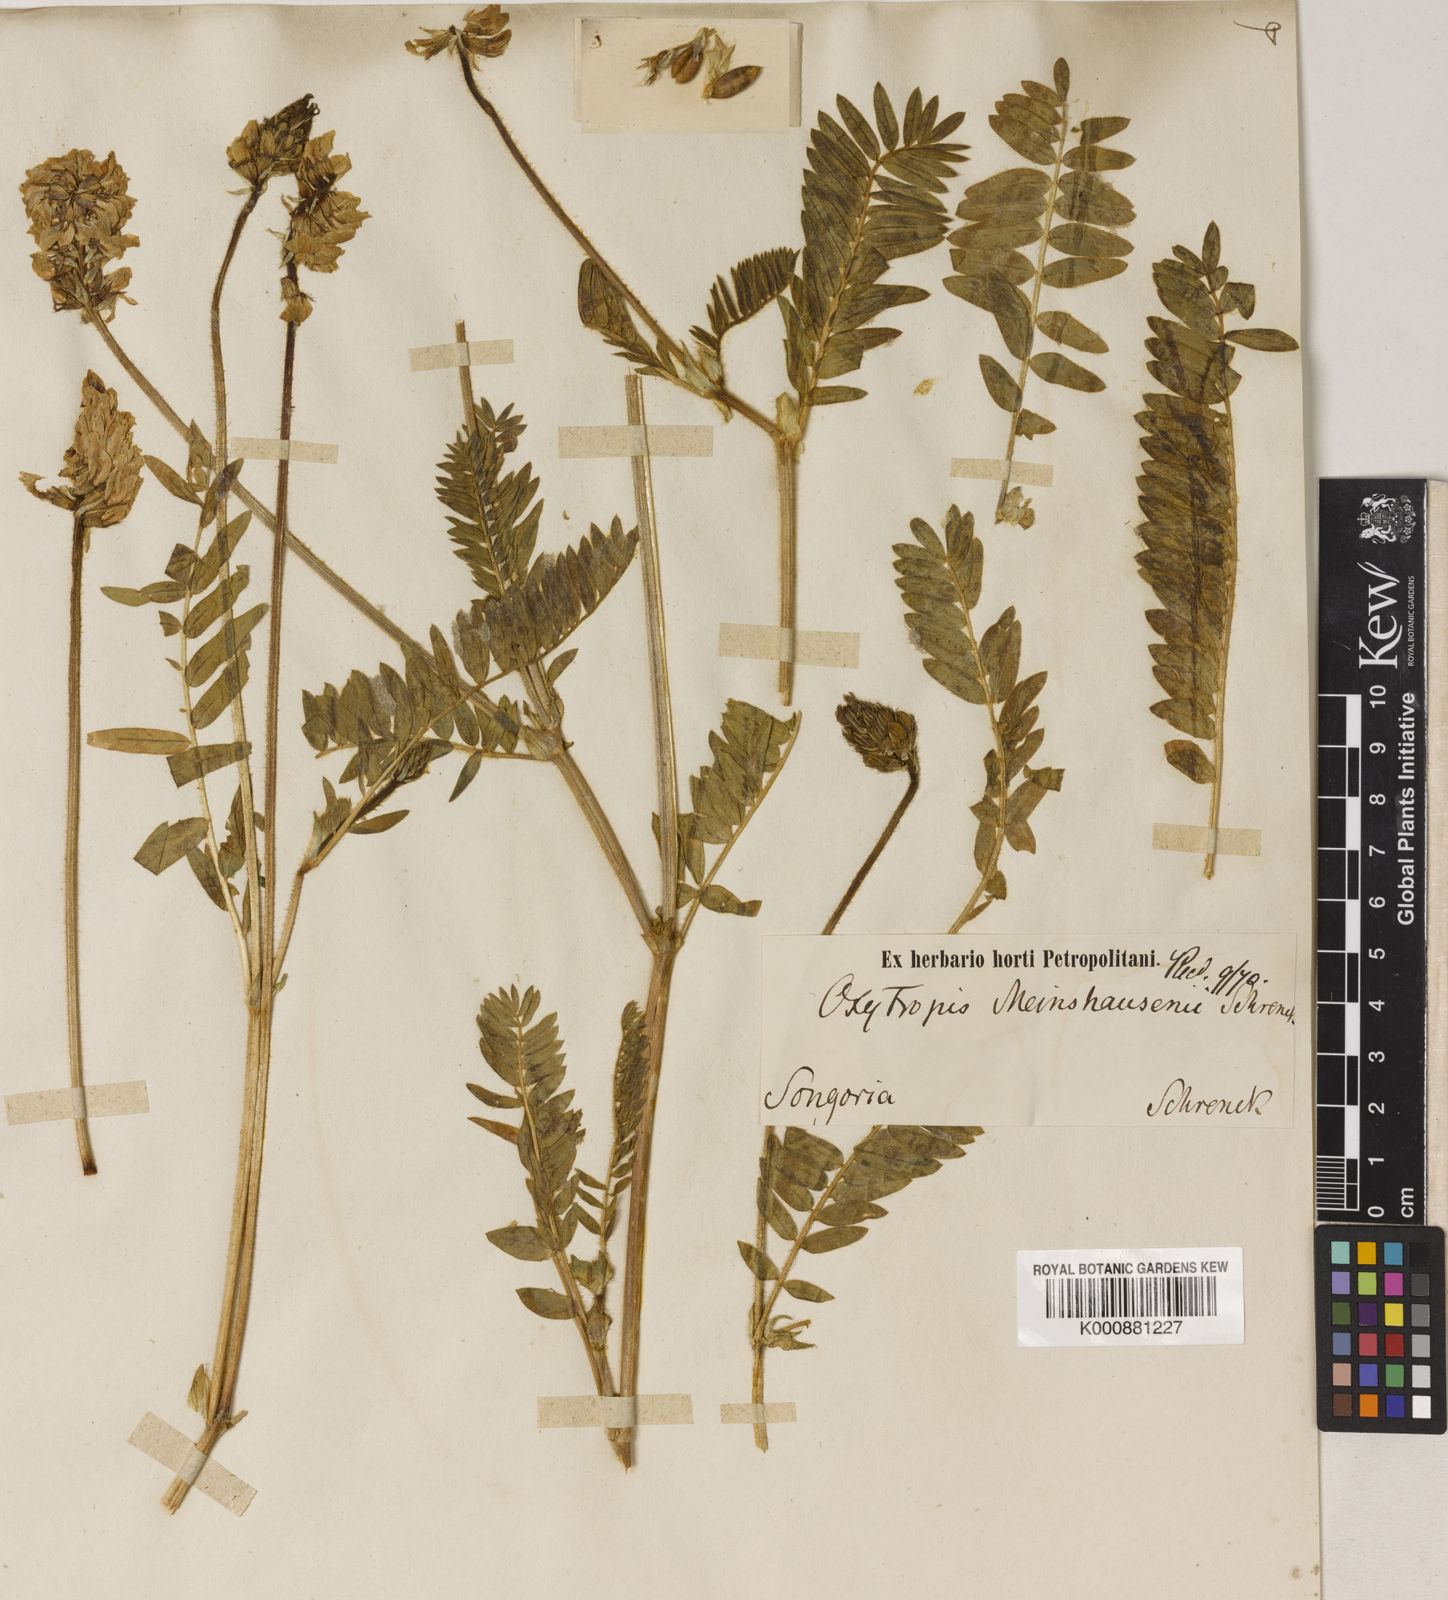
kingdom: Plantae
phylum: Tracheophyta
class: Magnoliopsida
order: Fabales
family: Fabaceae
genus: Oxytropis
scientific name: Oxytropis meinshausenii
